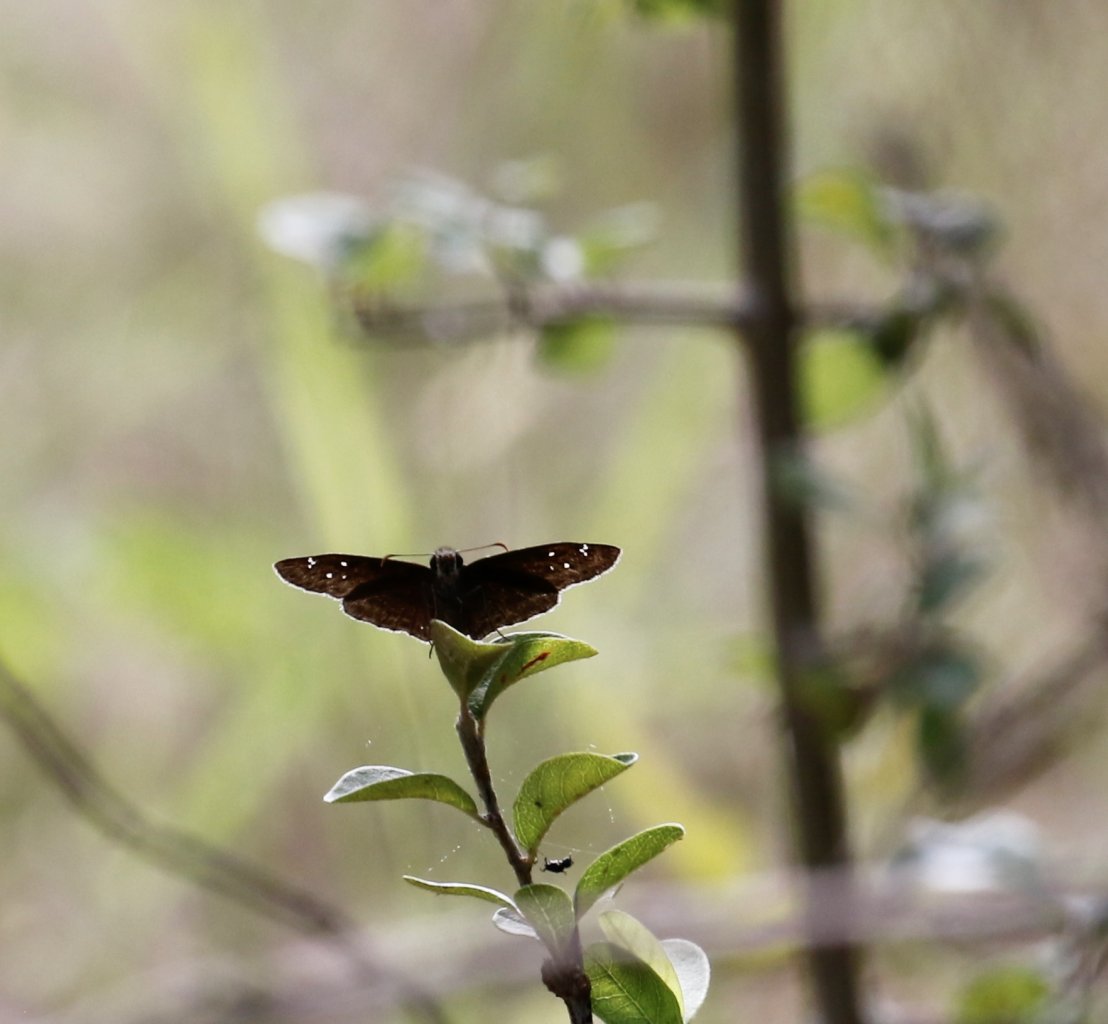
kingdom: Animalia
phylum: Arthropoda
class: Insecta
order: Lepidoptera
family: Hesperiidae
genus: Gesta
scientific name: Gesta
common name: Horace's Duskywing
